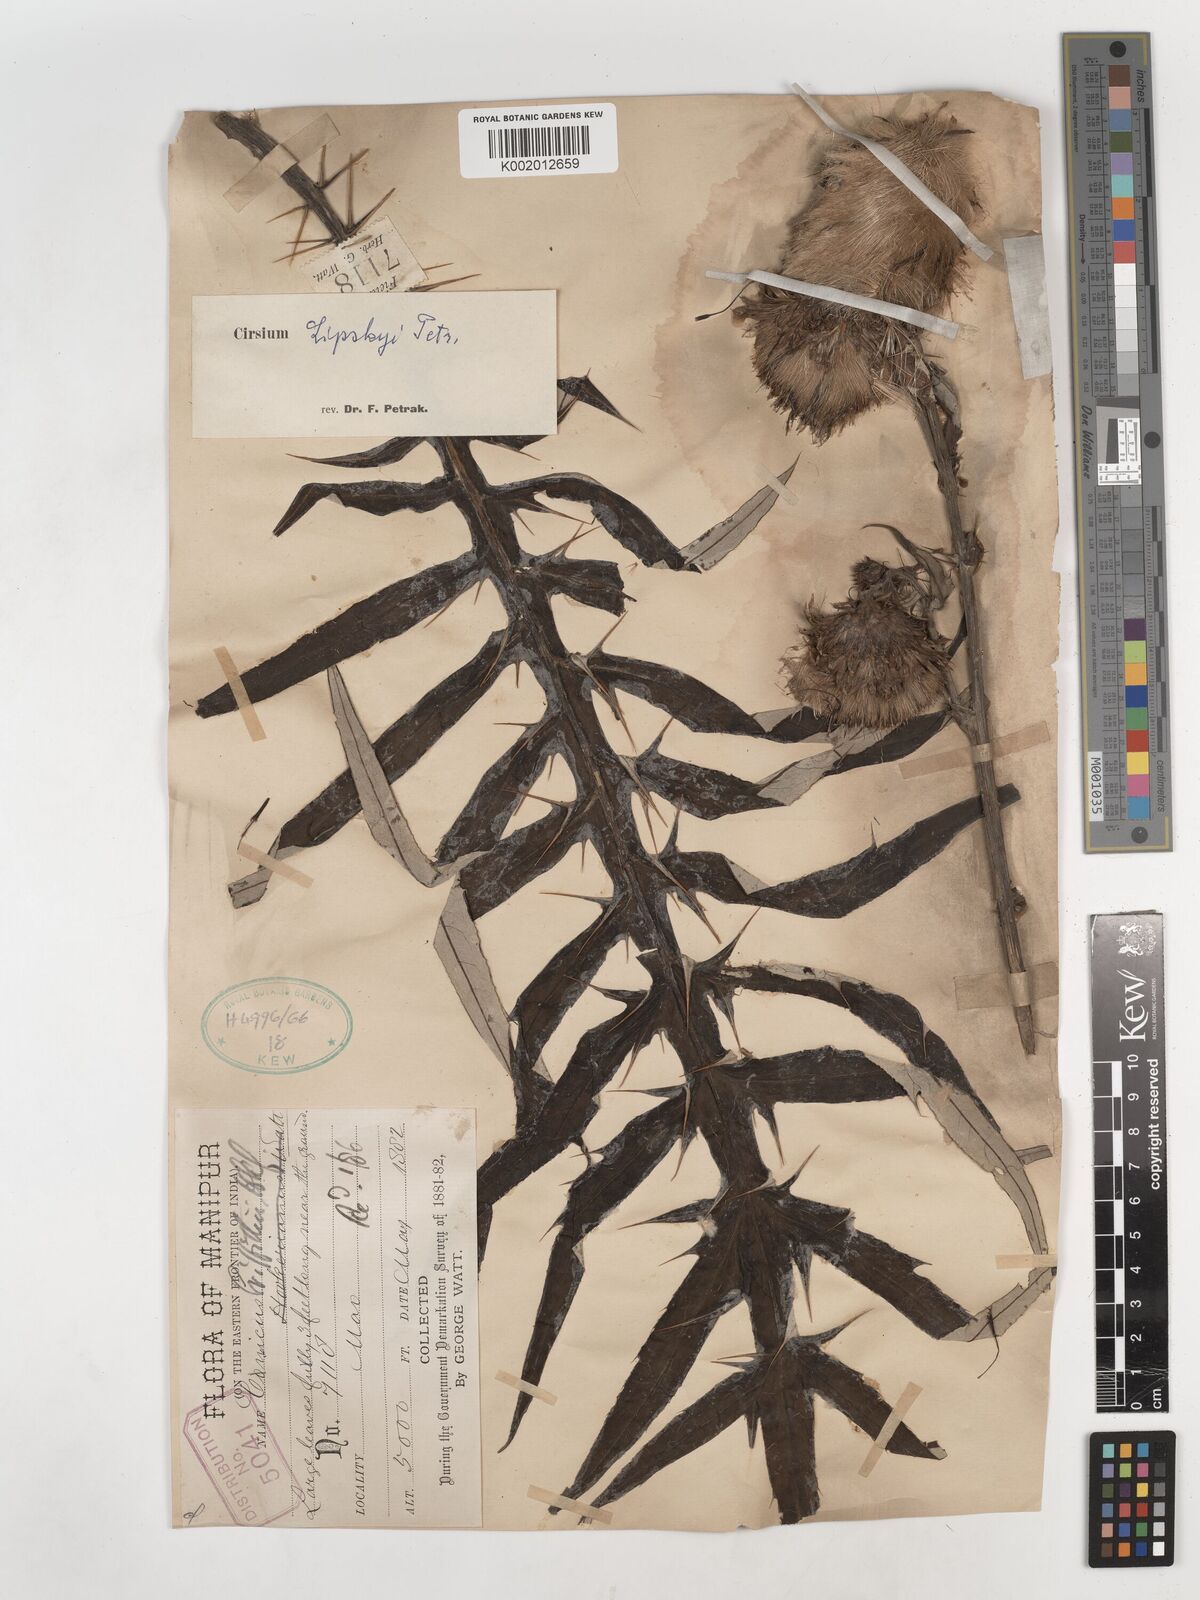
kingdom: Plantae
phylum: Tracheophyta
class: Magnoliopsida
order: Asterales
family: Asteraceae
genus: Cirsium
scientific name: Cirsium lipskyi
